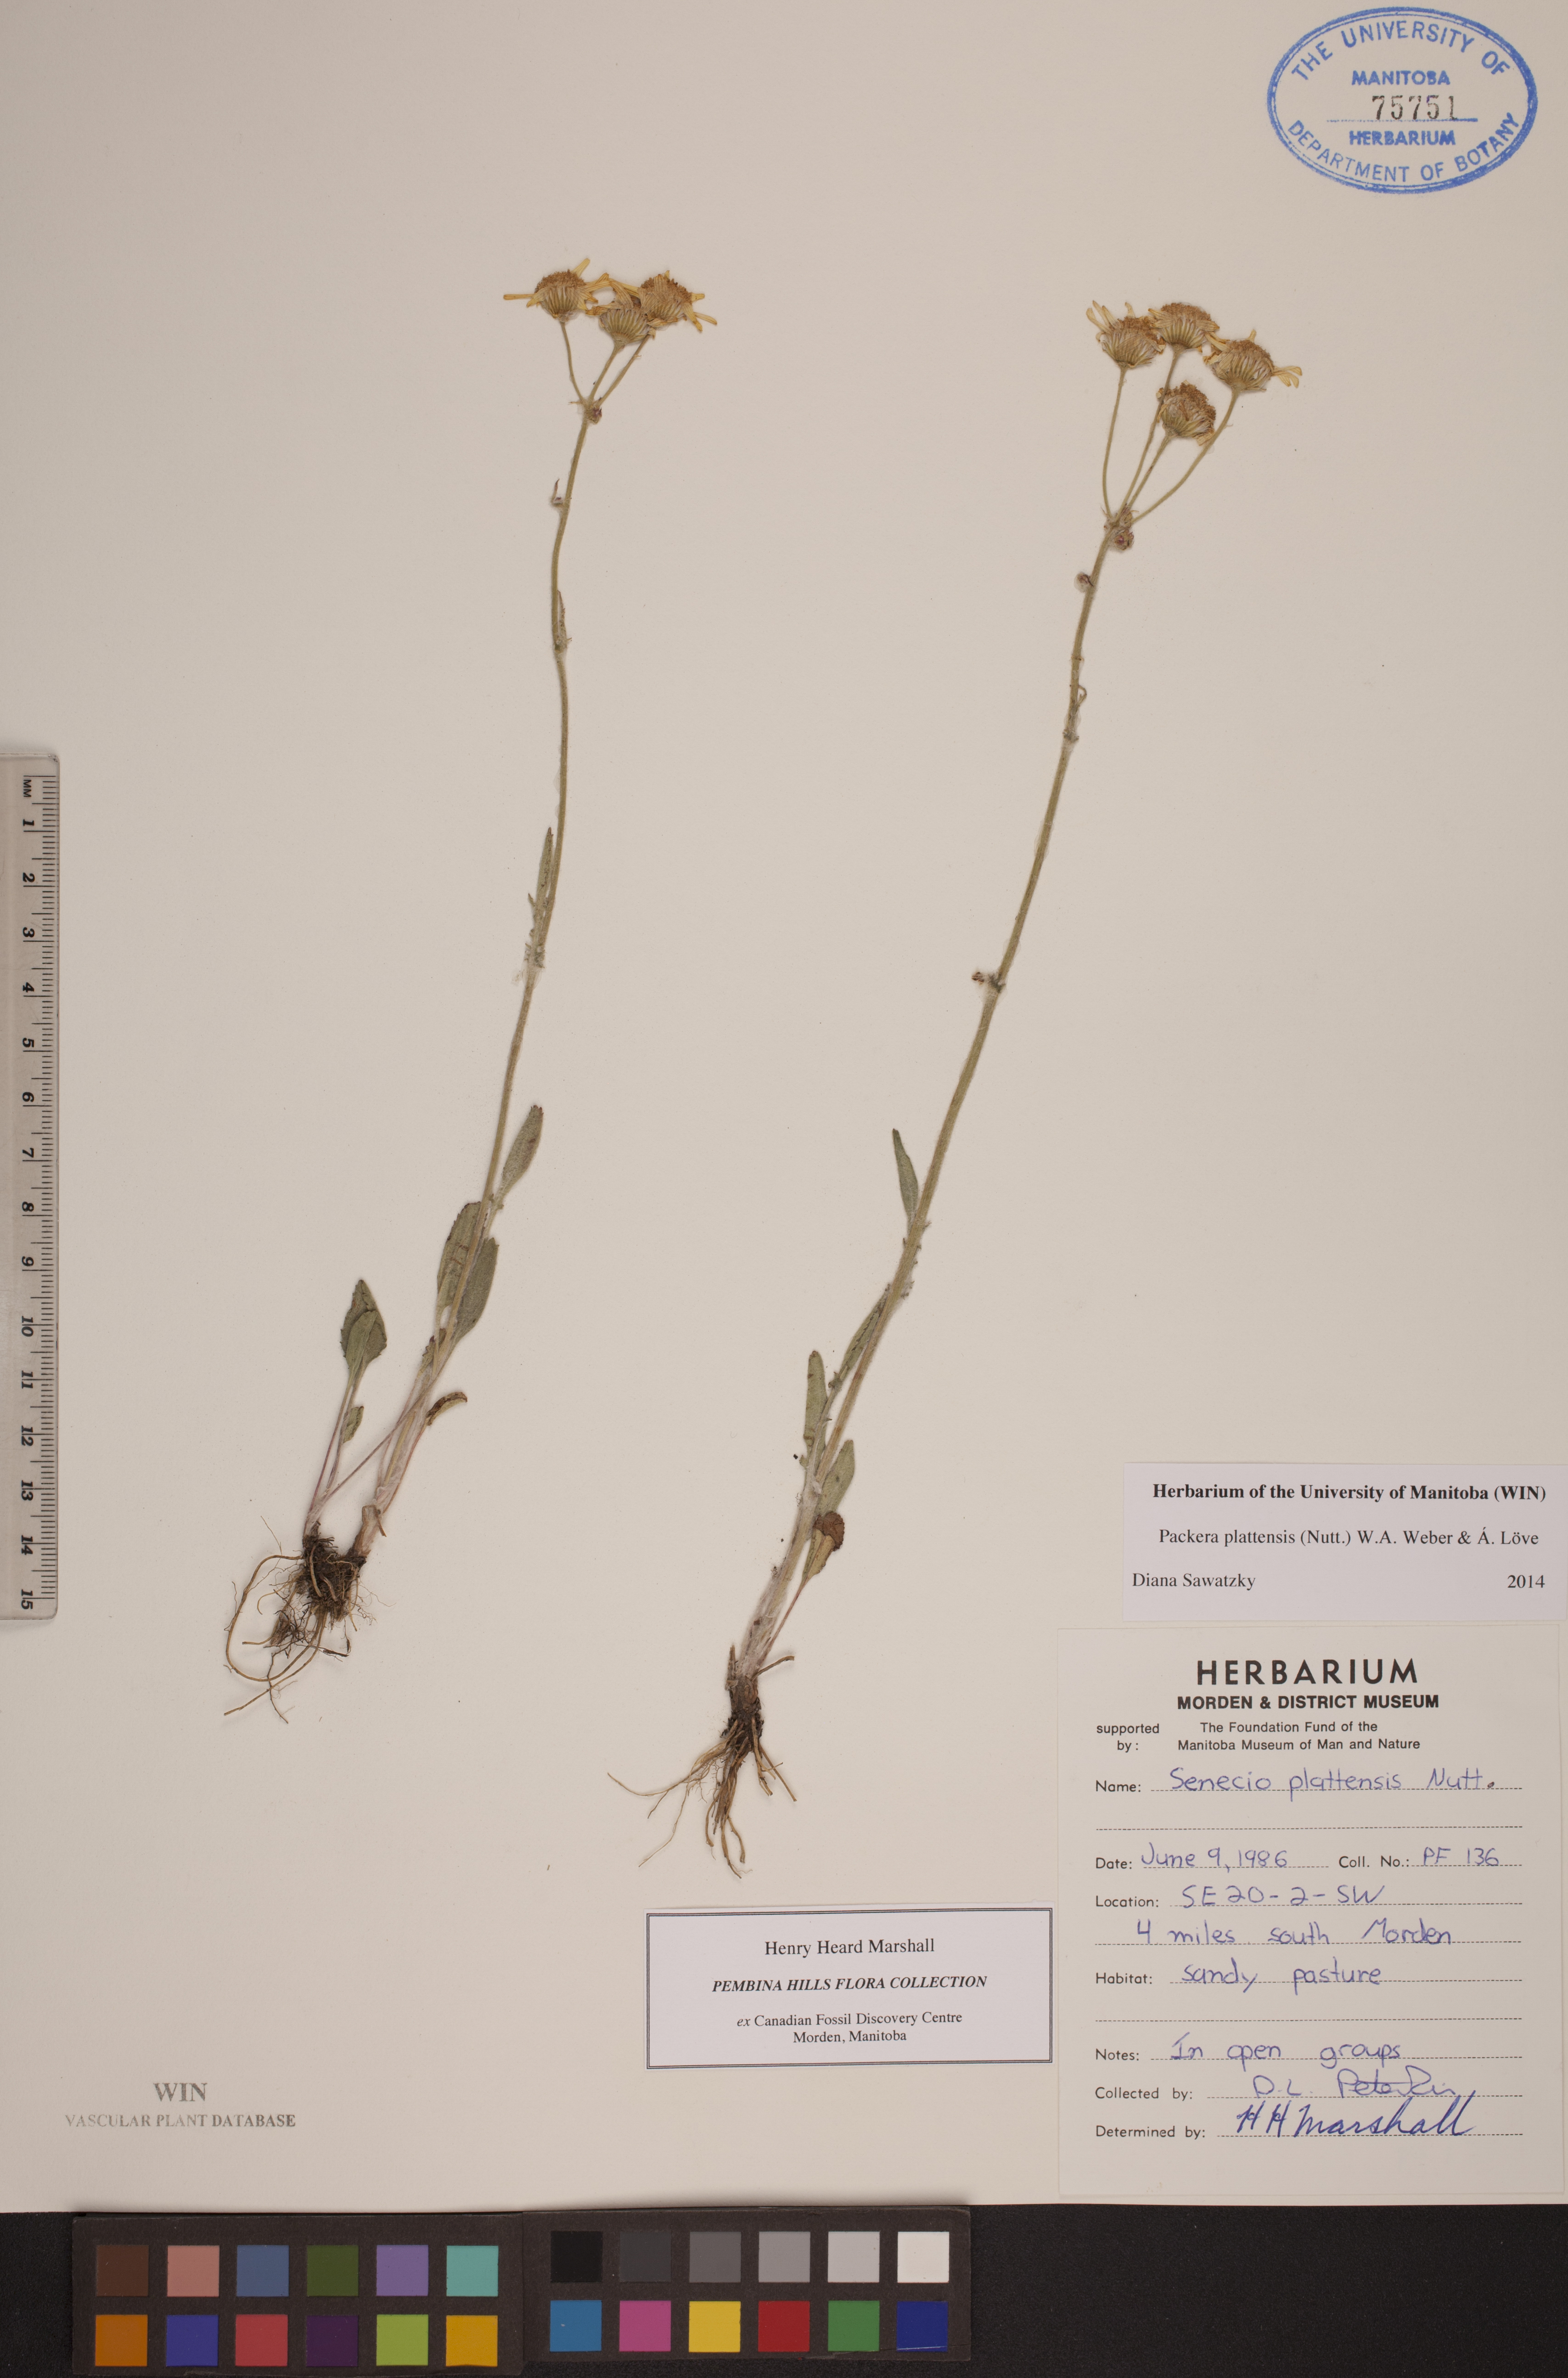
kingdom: Plantae
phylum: Tracheophyta
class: Magnoliopsida
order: Asterales
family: Asteraceae
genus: Packera
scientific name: Packera plattensis
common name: Prairie groundsel
